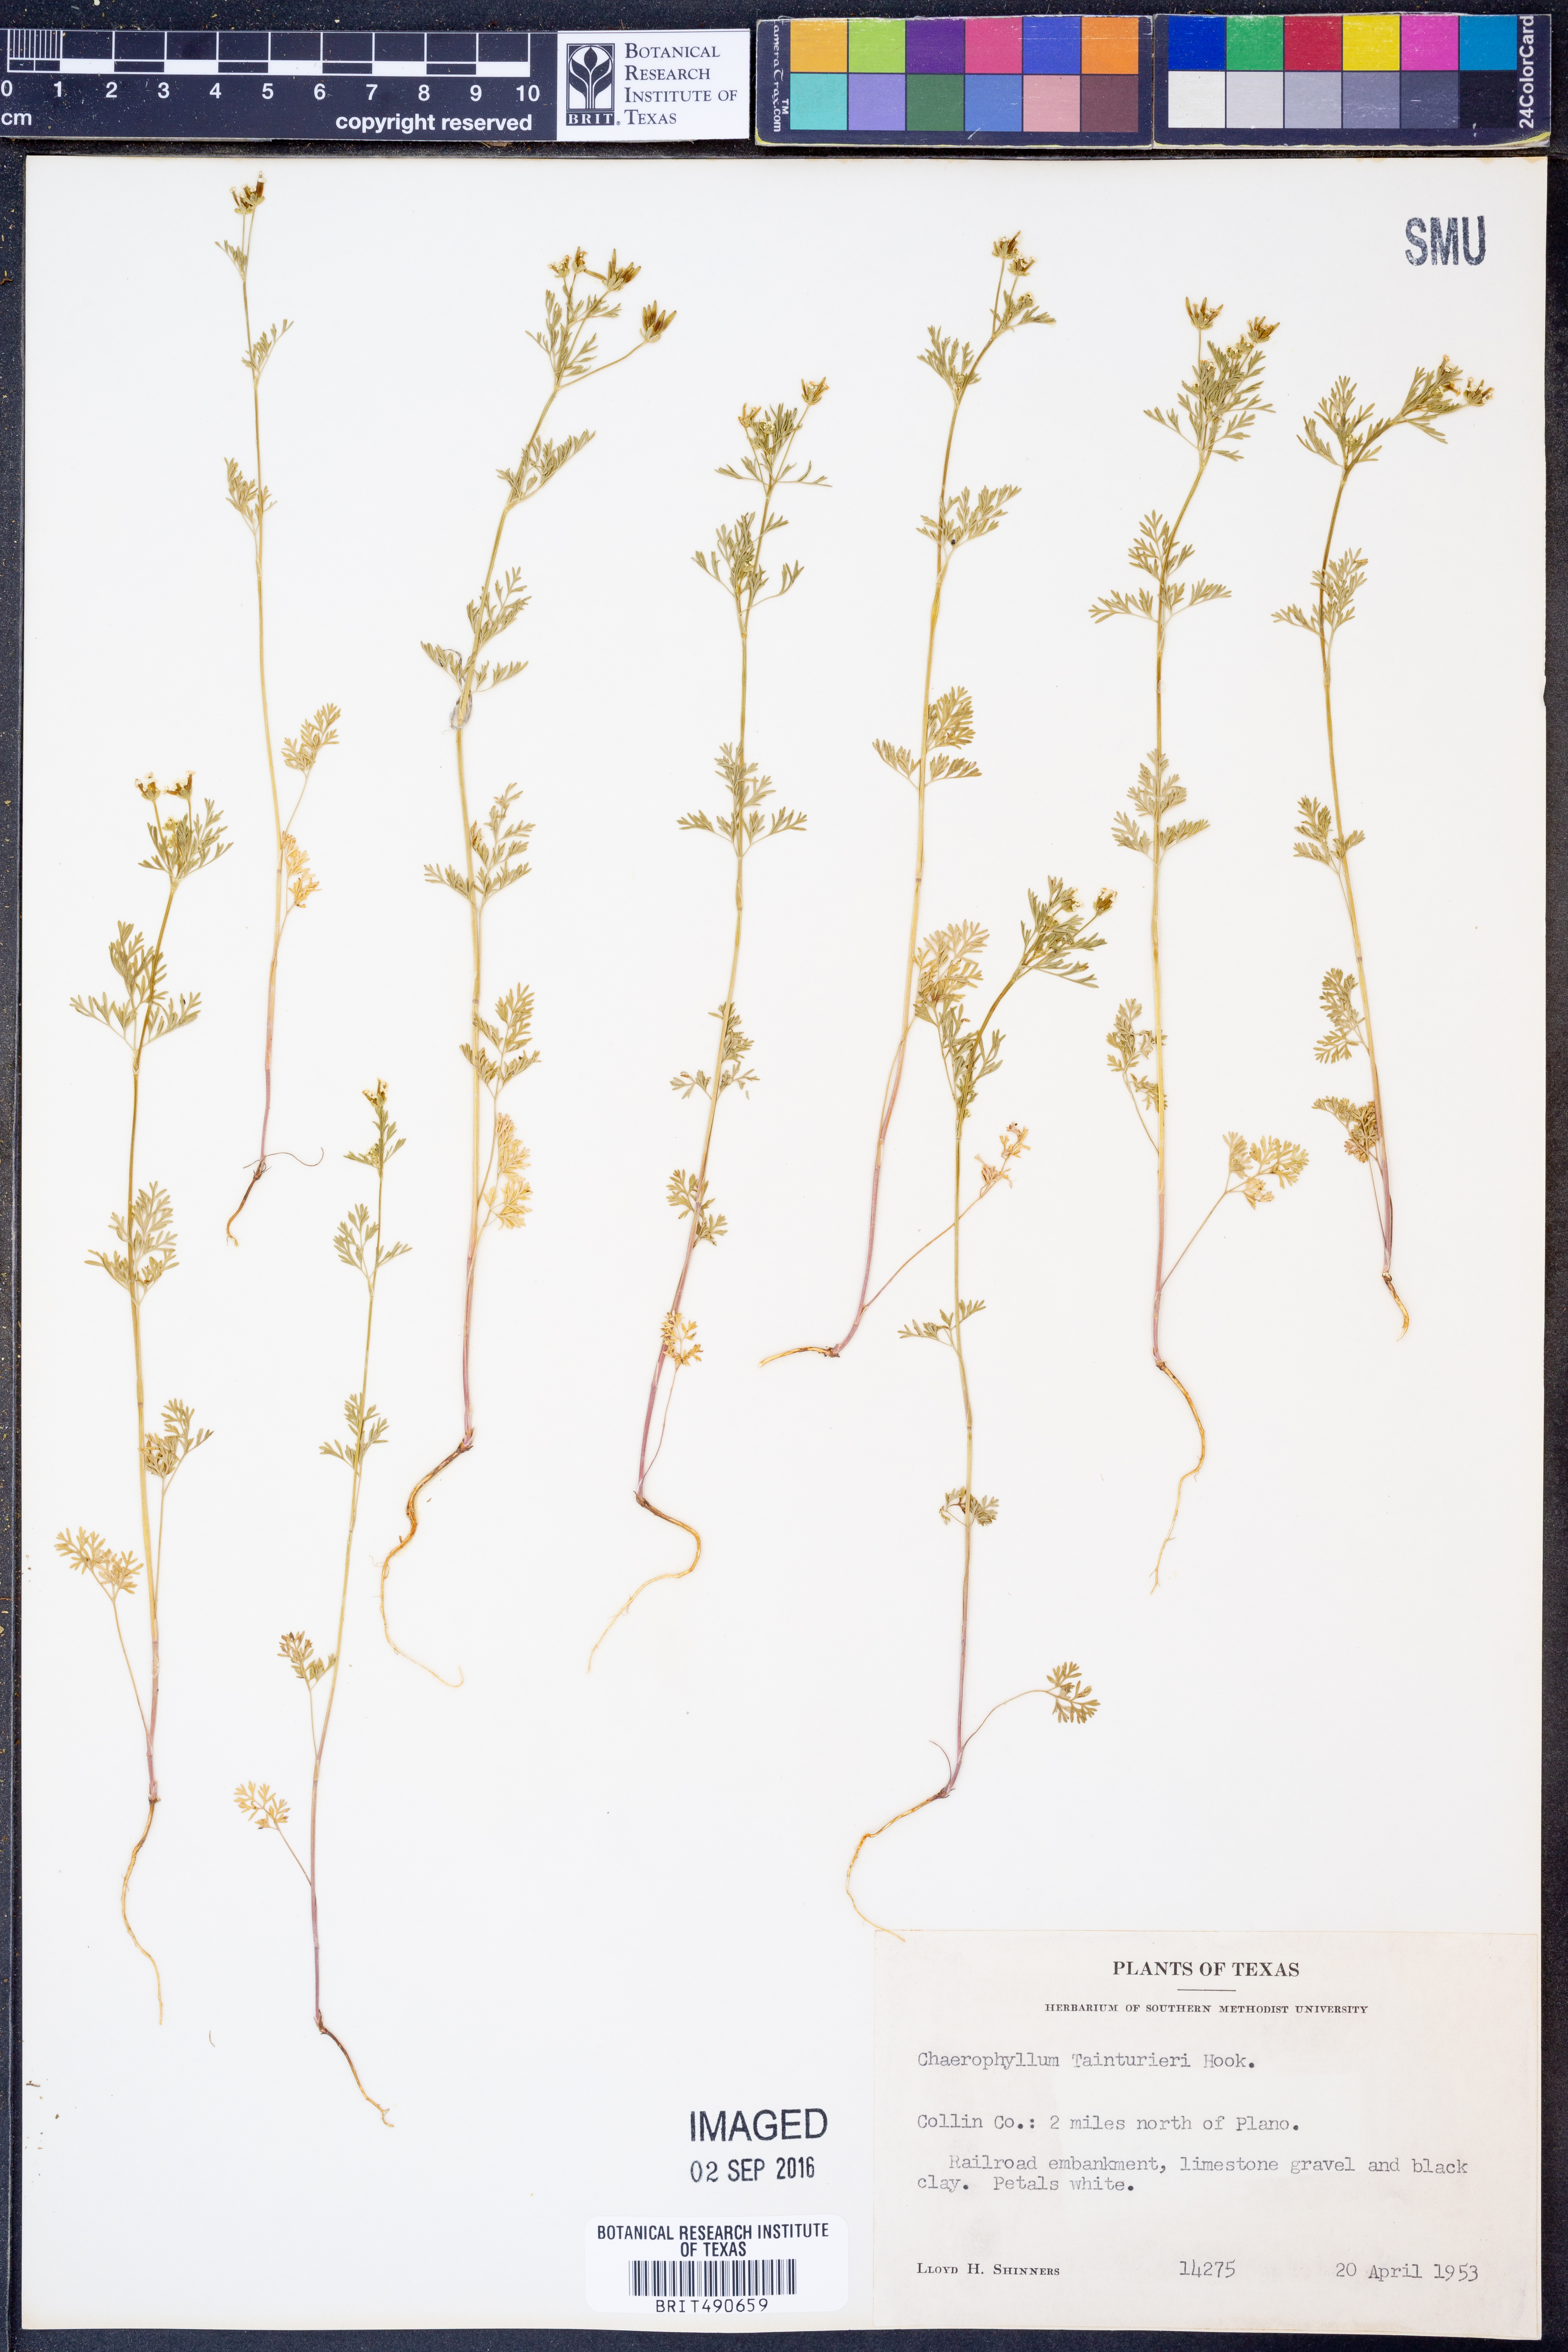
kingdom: Plantae
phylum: Tracheophyta
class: Magnoliopsida
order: Apiales
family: Apiaceae
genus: Chaerophyllum
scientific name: Chaerophyllum tainturieri
